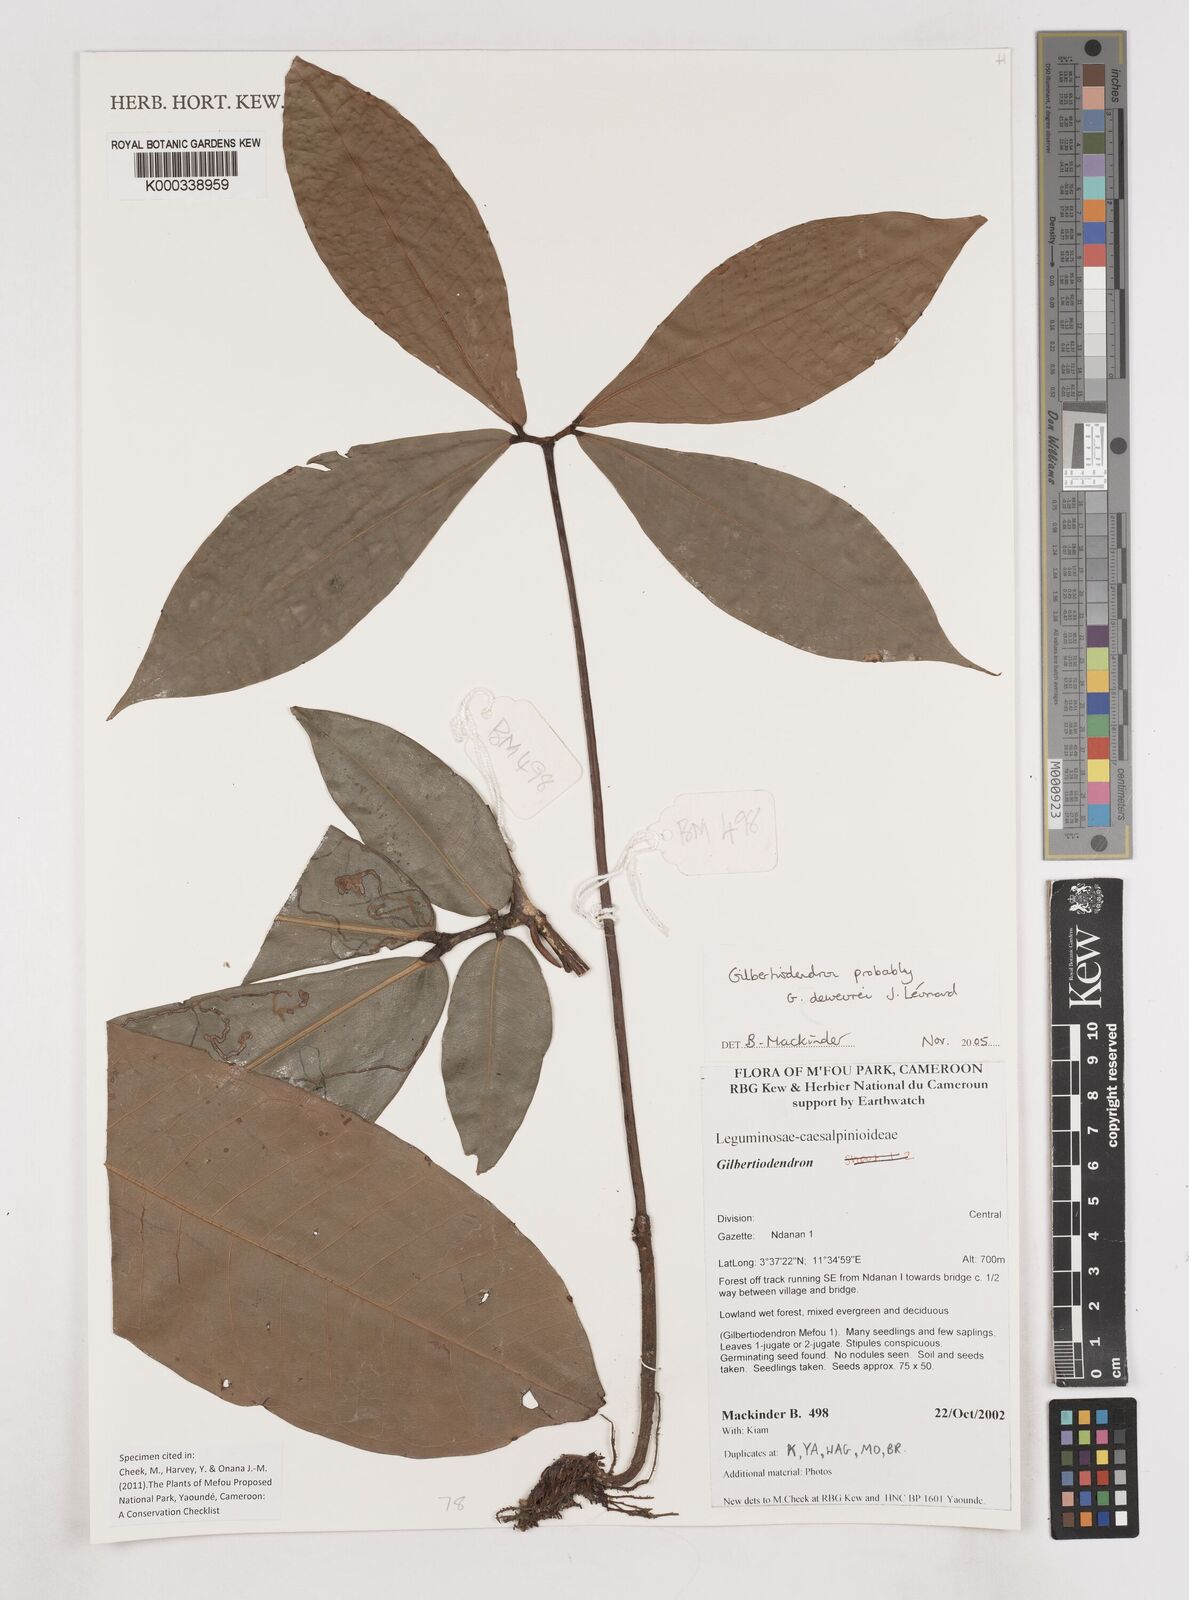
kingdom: Plantae
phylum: Tracheophyta
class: Magnoliopsida
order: Fabales
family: Fabaceae
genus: Gilbertiodendron
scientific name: Gilbertiodendron
